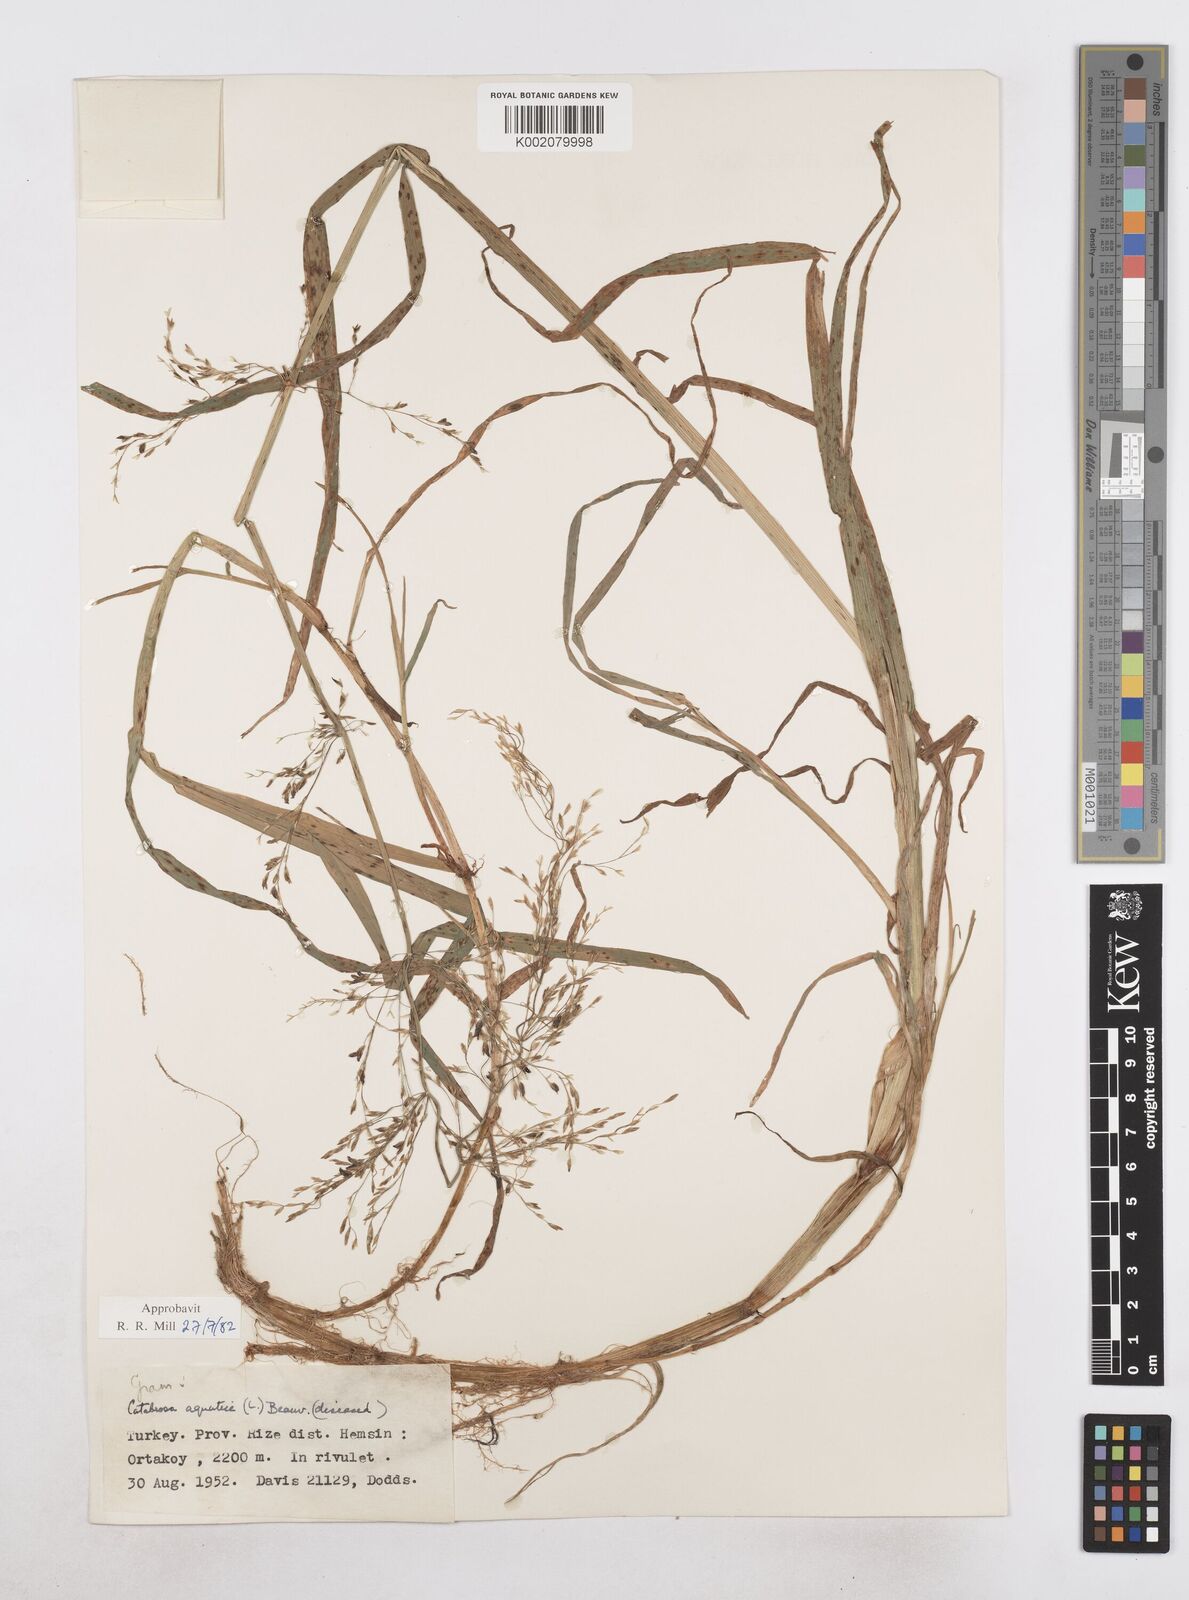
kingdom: Plantae
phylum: Tracheophyta
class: Liliopsida
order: Poales
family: Poaceae
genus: Catabrosa
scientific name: Catabrosa aquatica
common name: Whorl-grass
